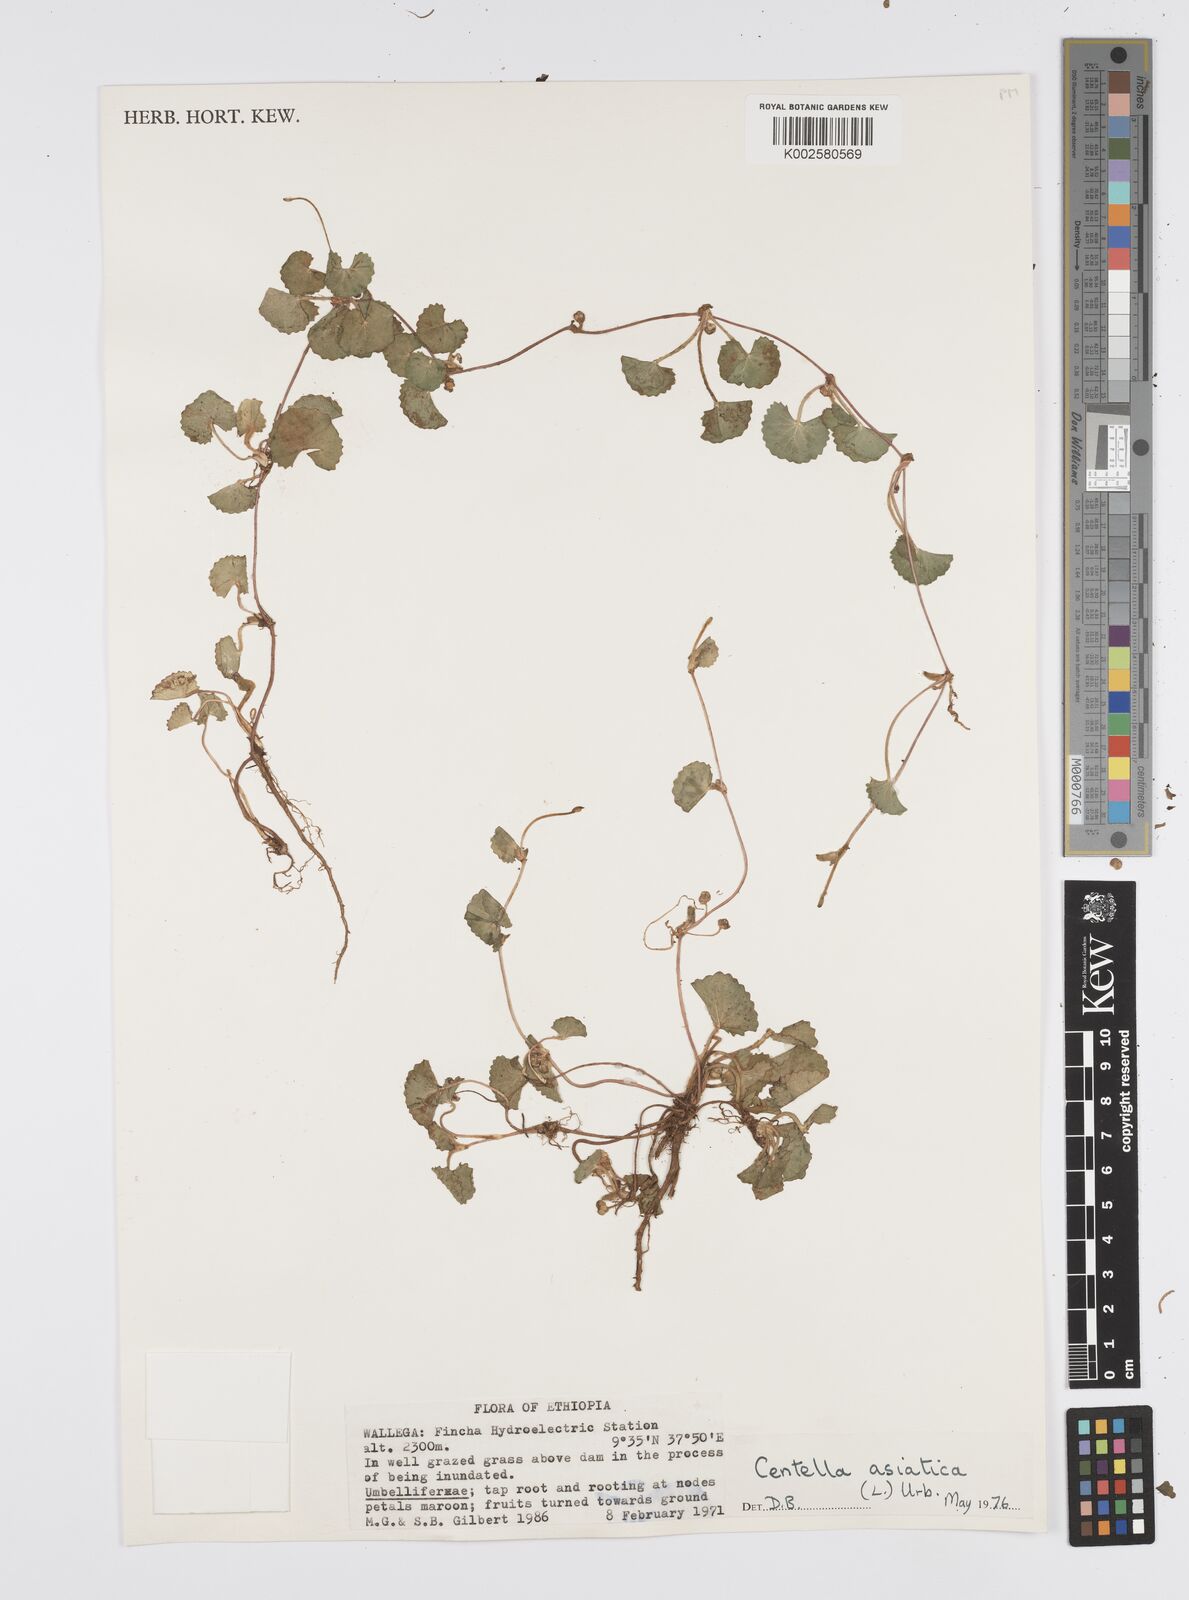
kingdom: Plantae
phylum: Tracheophyta
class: Magnoliopsida
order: Apiales
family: Apiaceae
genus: Centella
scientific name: Centella asiatica
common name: Spadeleaf
